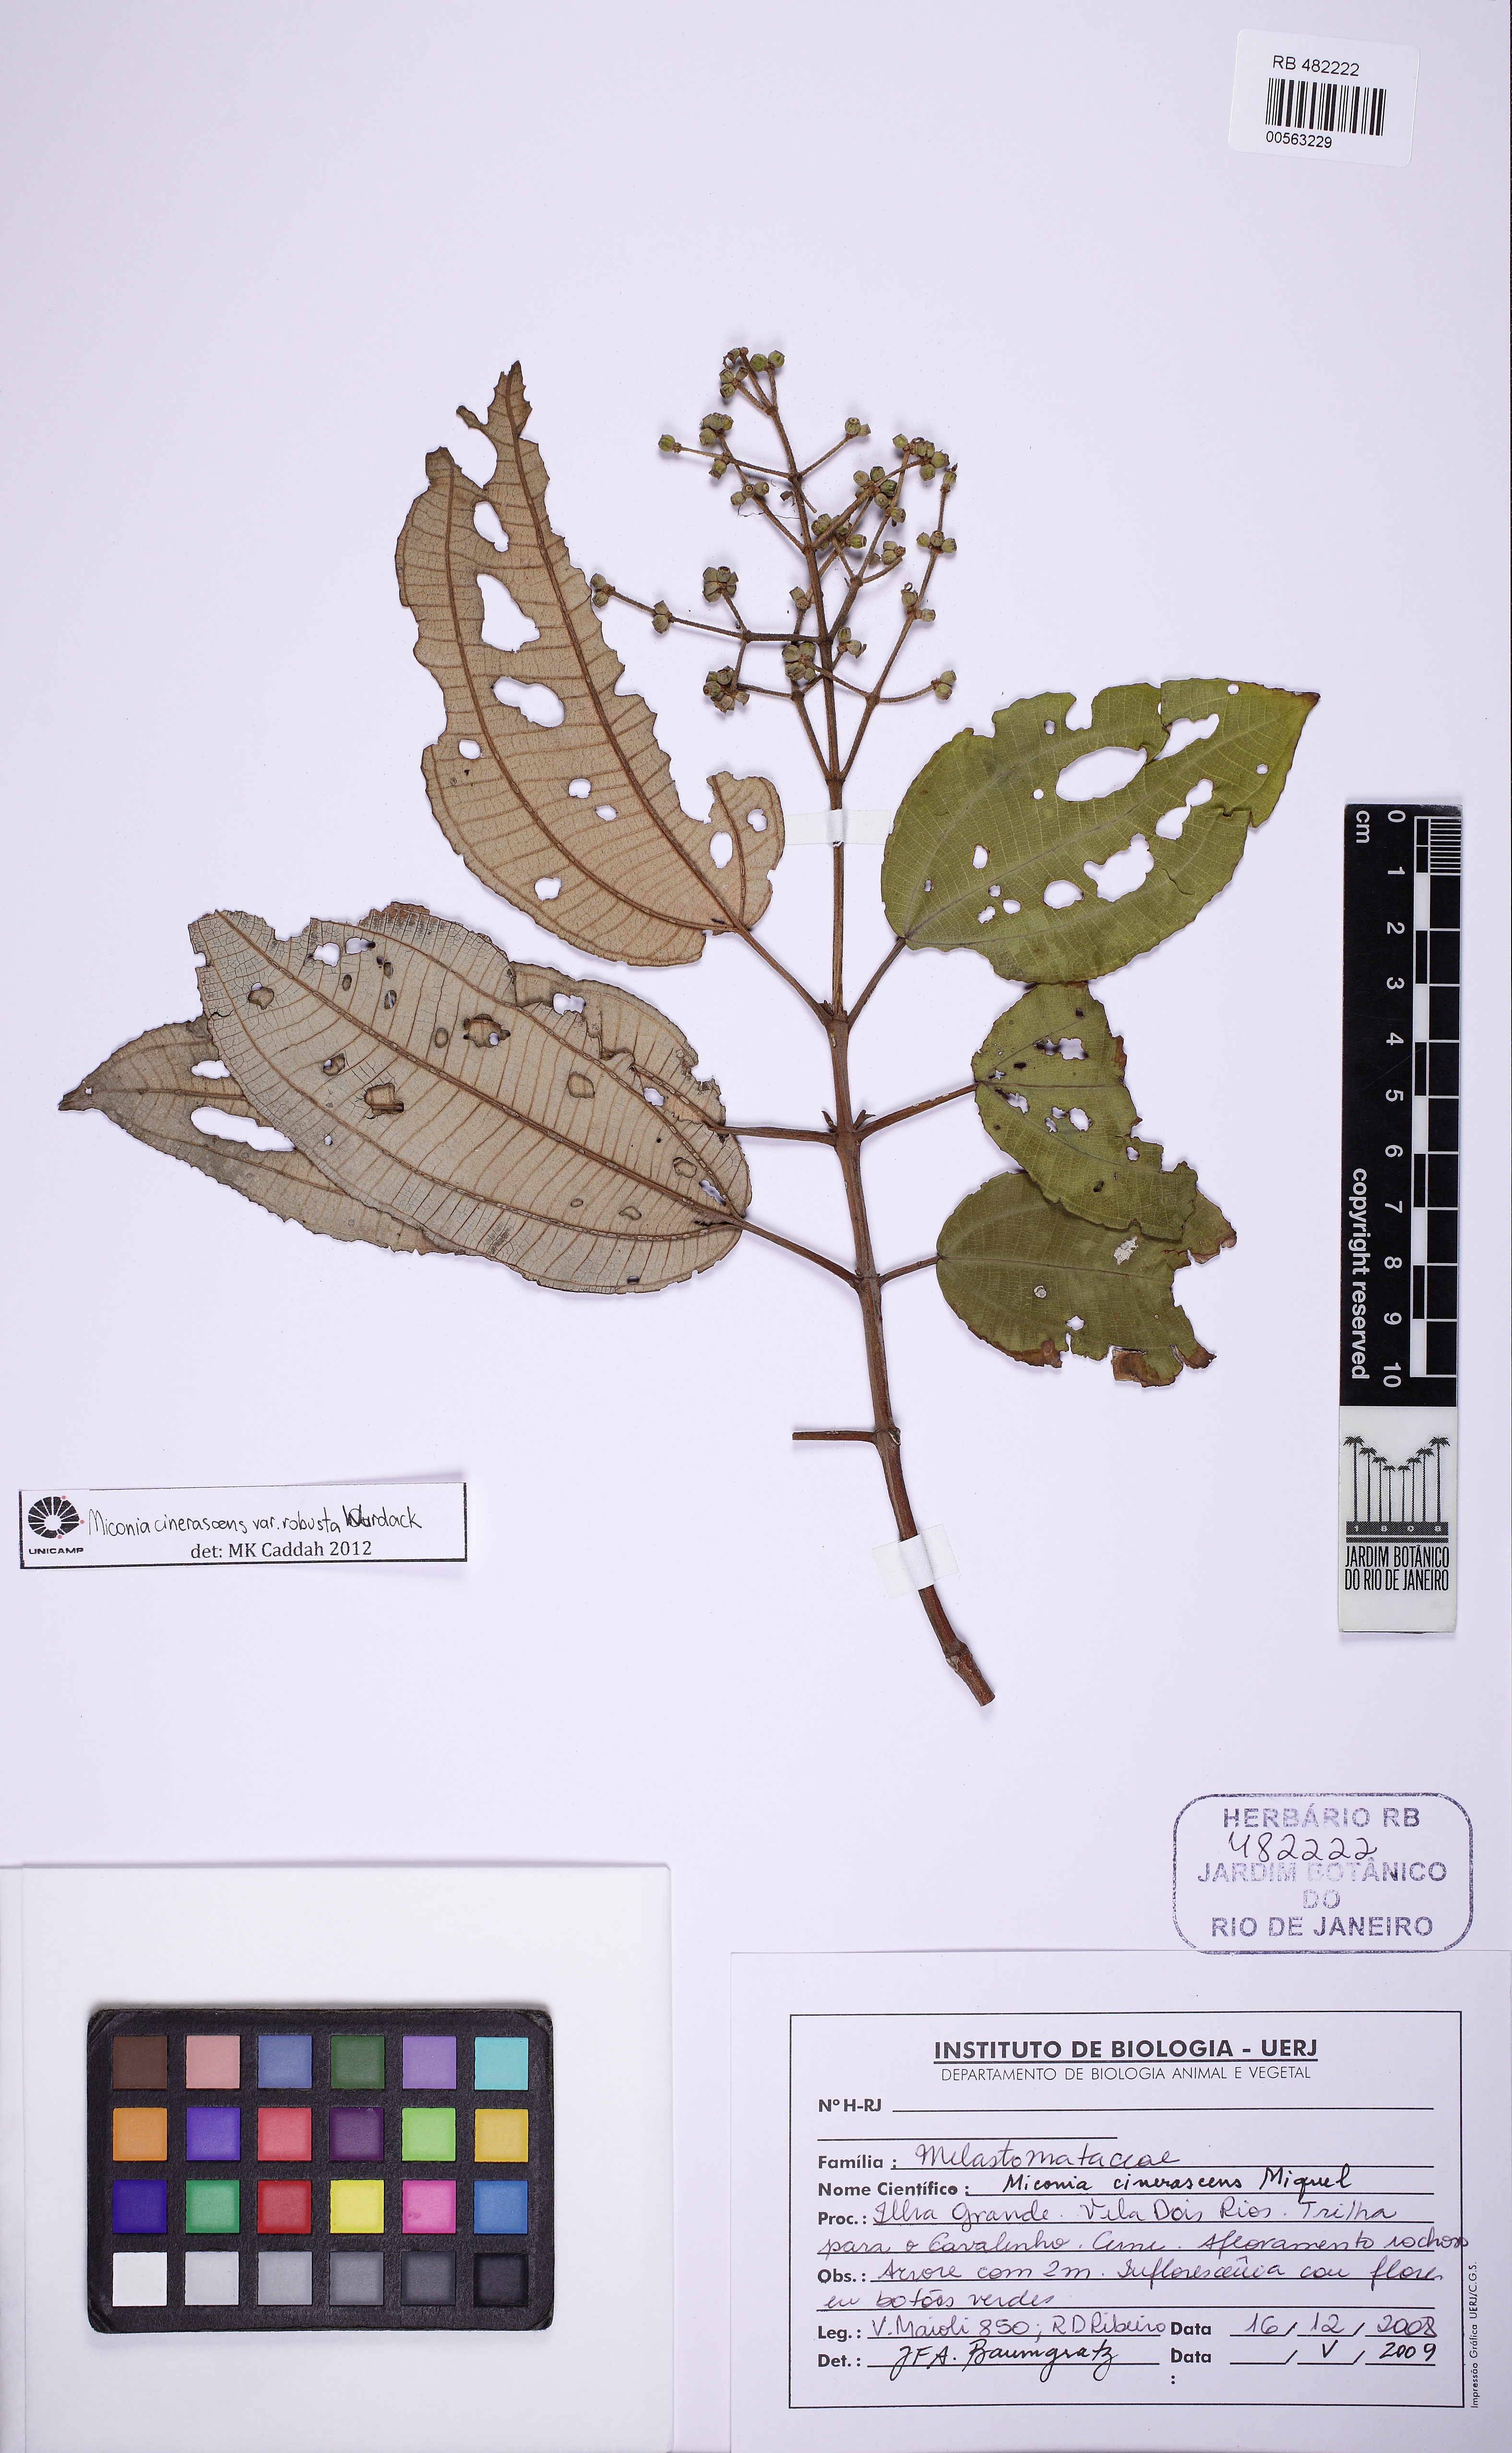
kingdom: Plantae
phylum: Tracheophyta
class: Magnoliopsida
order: Myrtales
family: Melastomataceae
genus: Miconia
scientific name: Miconia cinerascens
